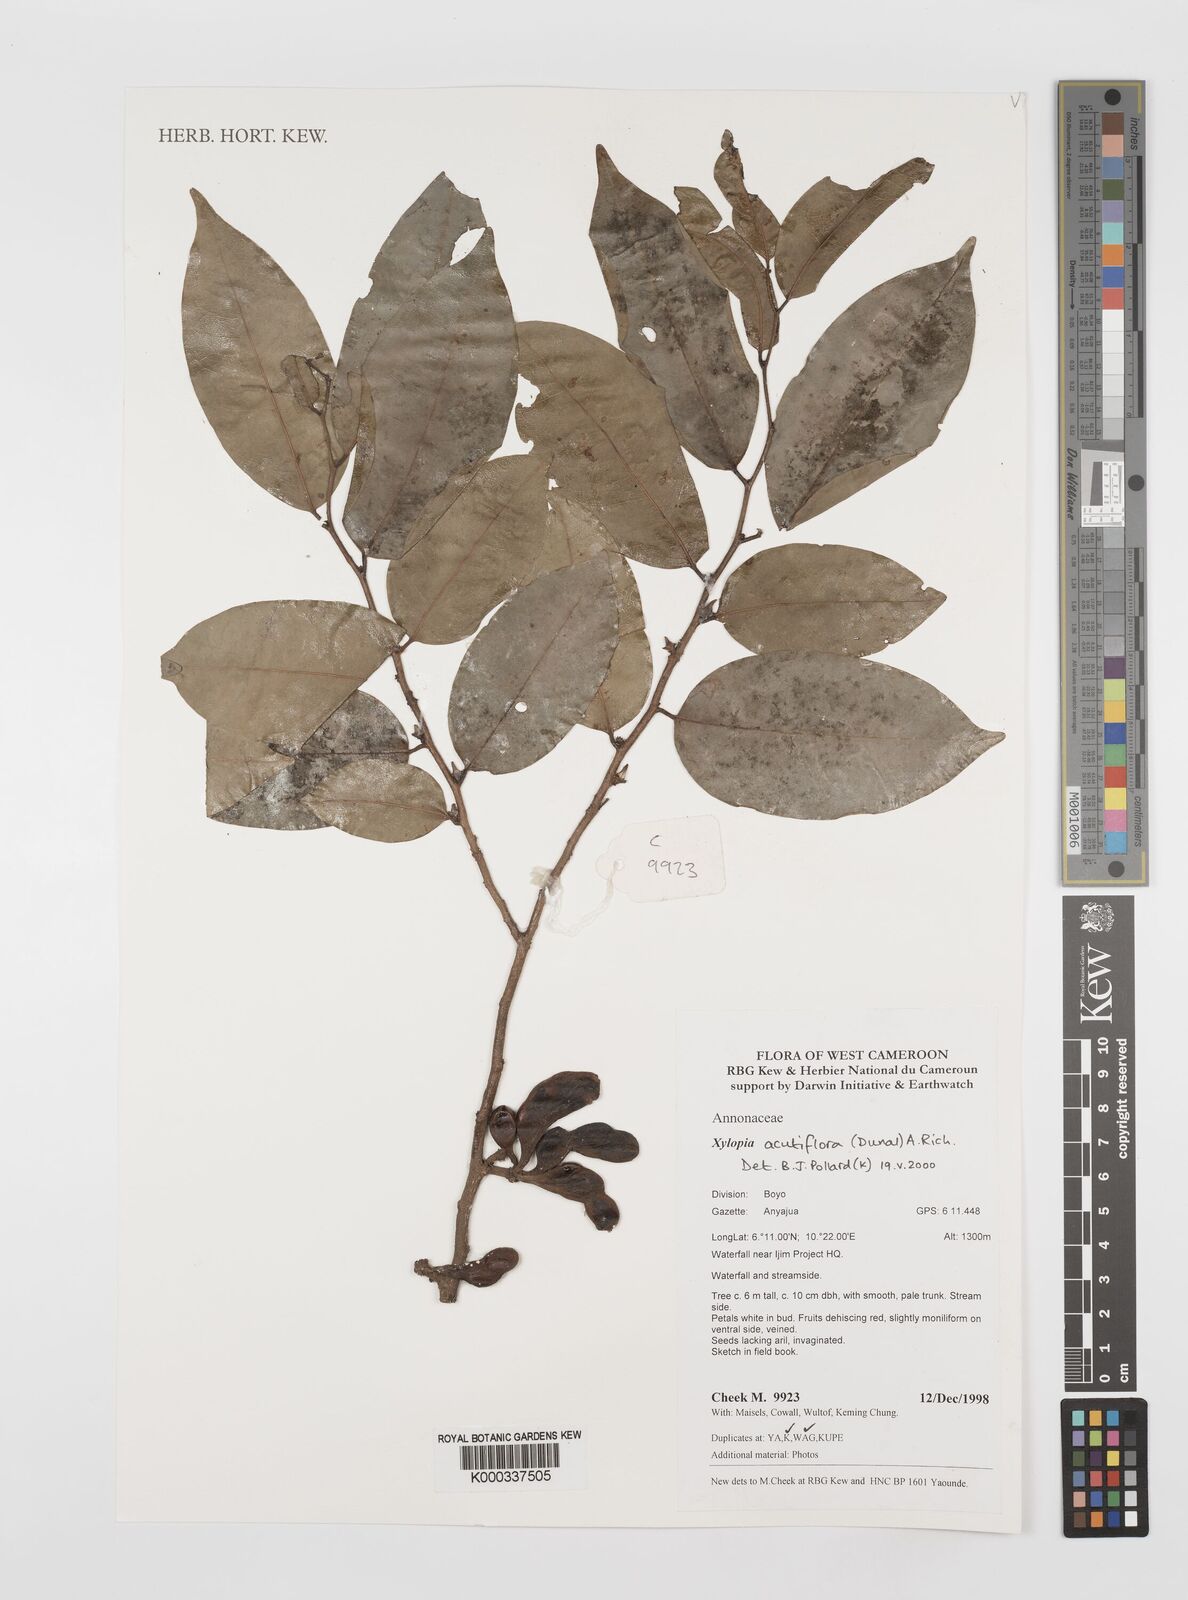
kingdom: Plantae
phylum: Tracheophyta
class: Magnoliopsida
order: Magnoliales
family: Annonaceae
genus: Xylopia
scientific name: Xylopia acutiflora
